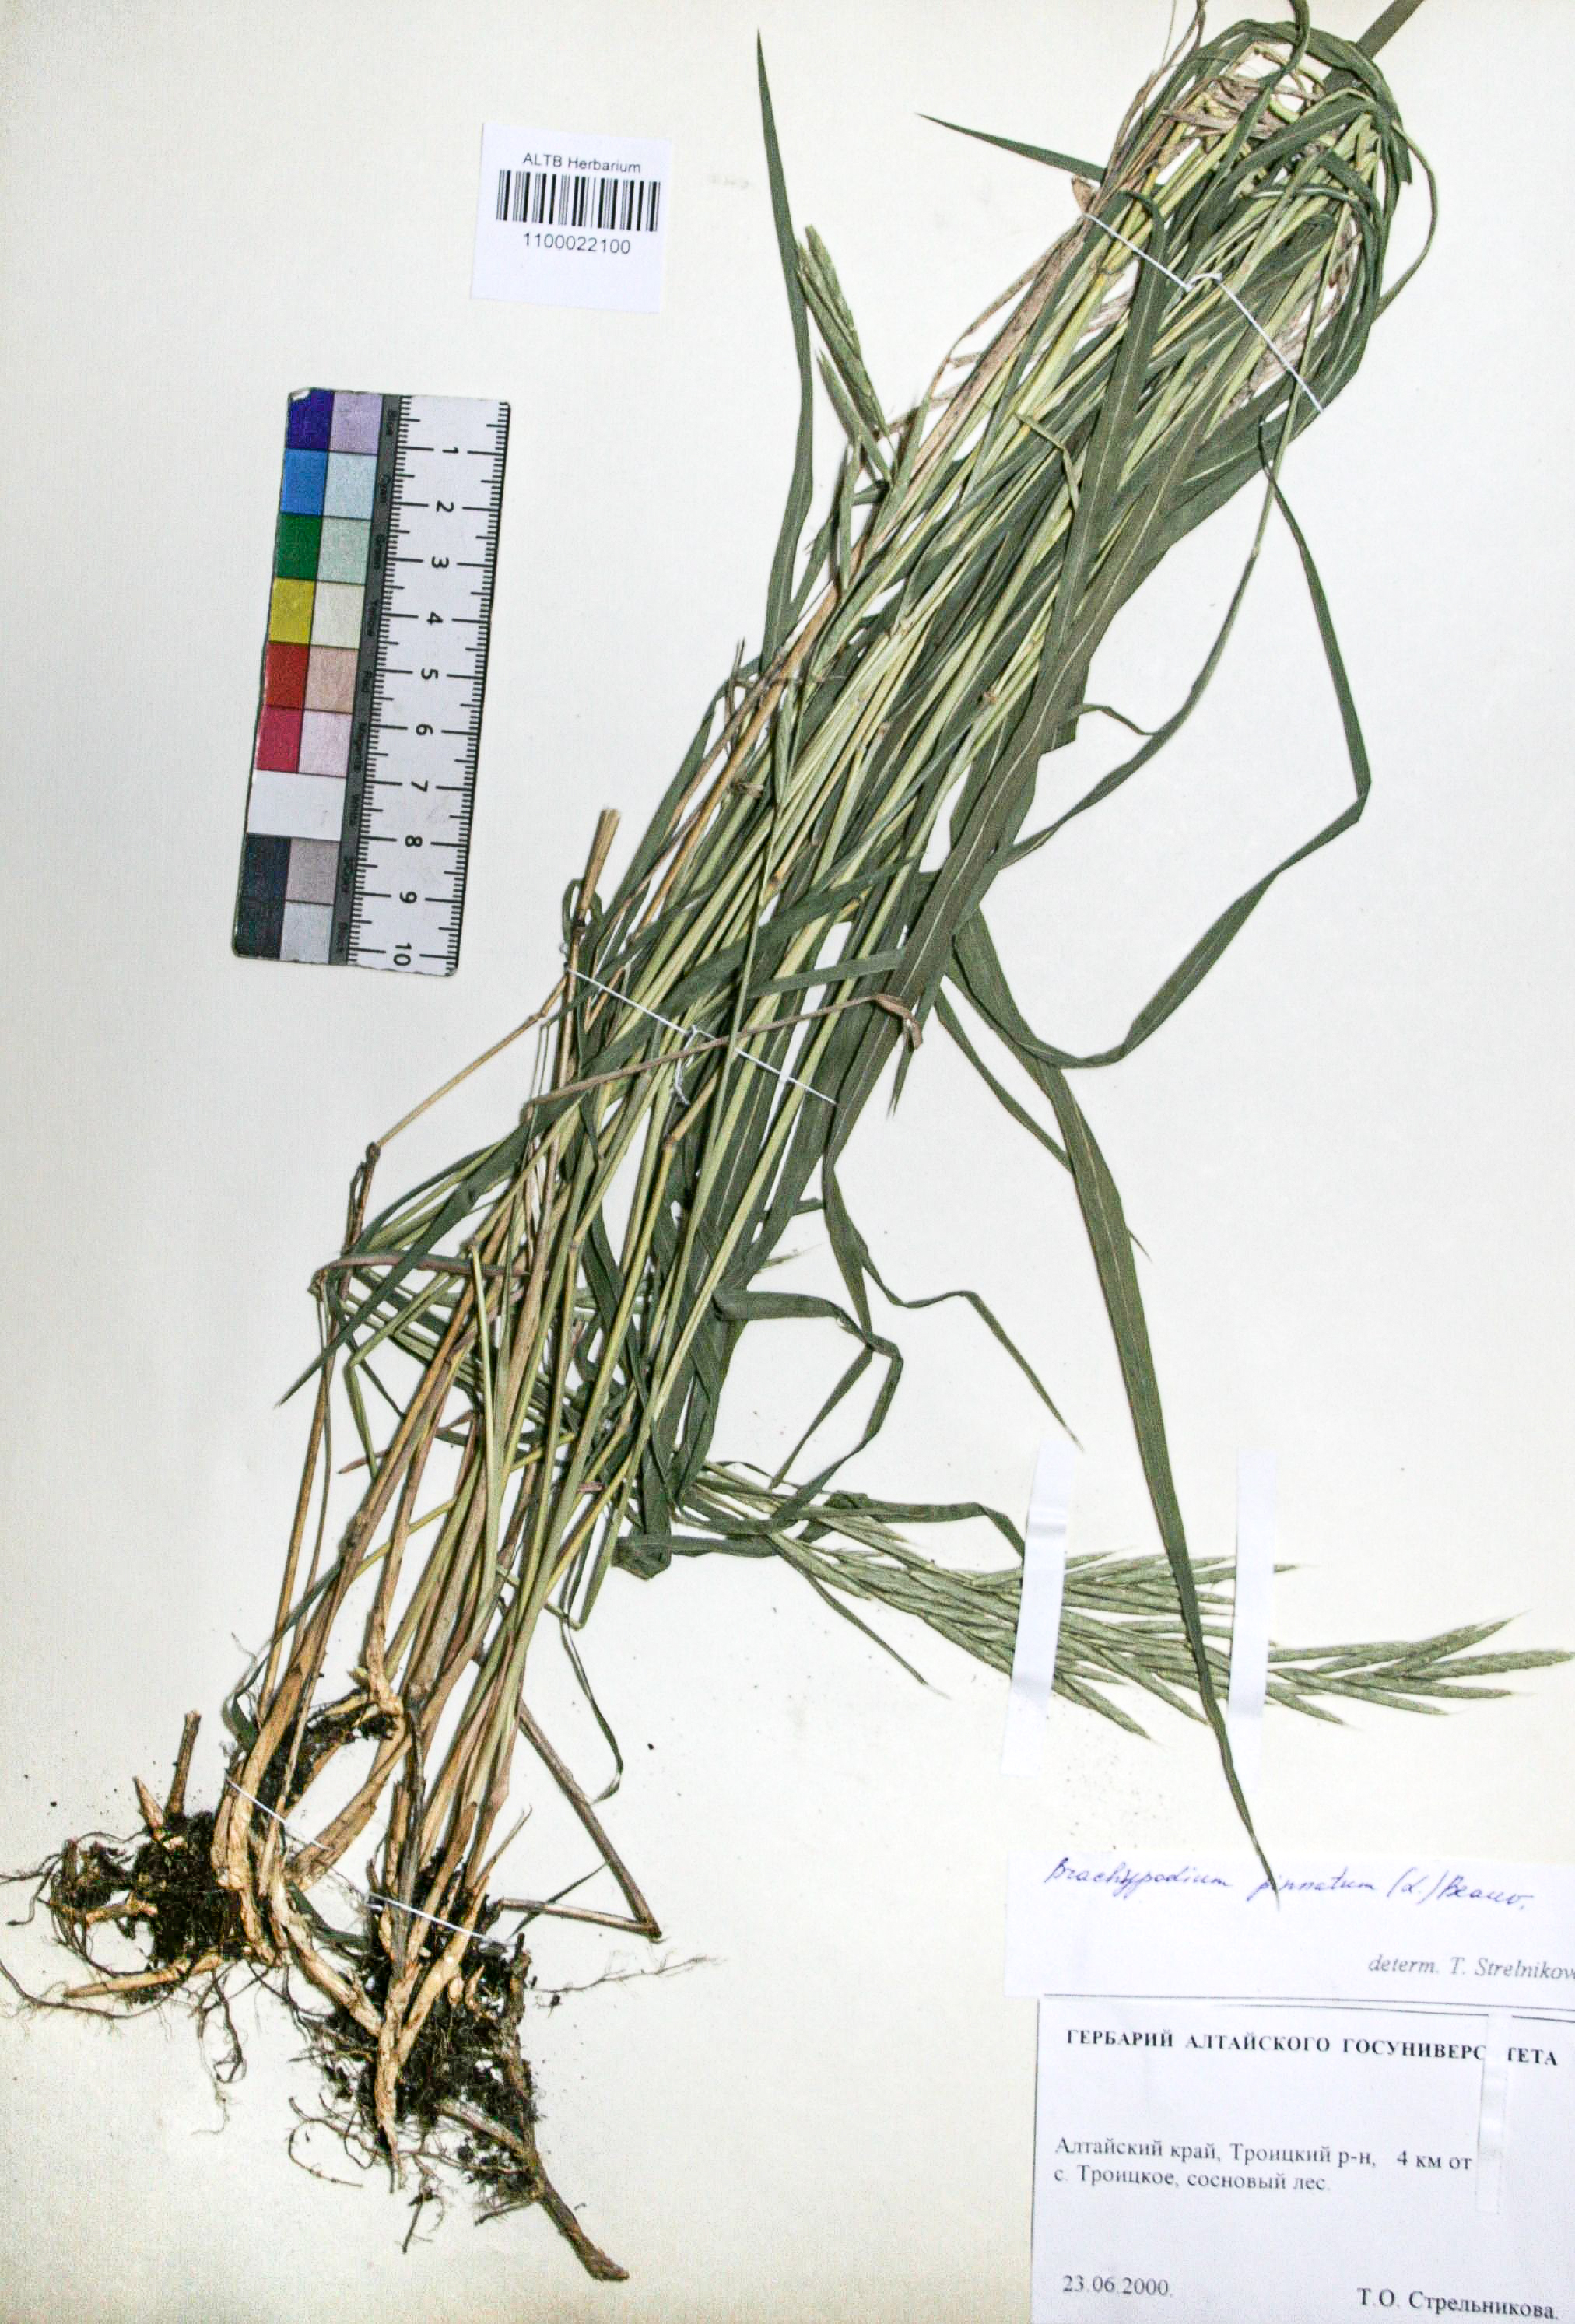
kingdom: Plantae
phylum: Tracheophyta
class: Liliopsida
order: Poales
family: Poaceae
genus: Brachypodium
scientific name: Brachypodium pinnatum
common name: Tor grass
